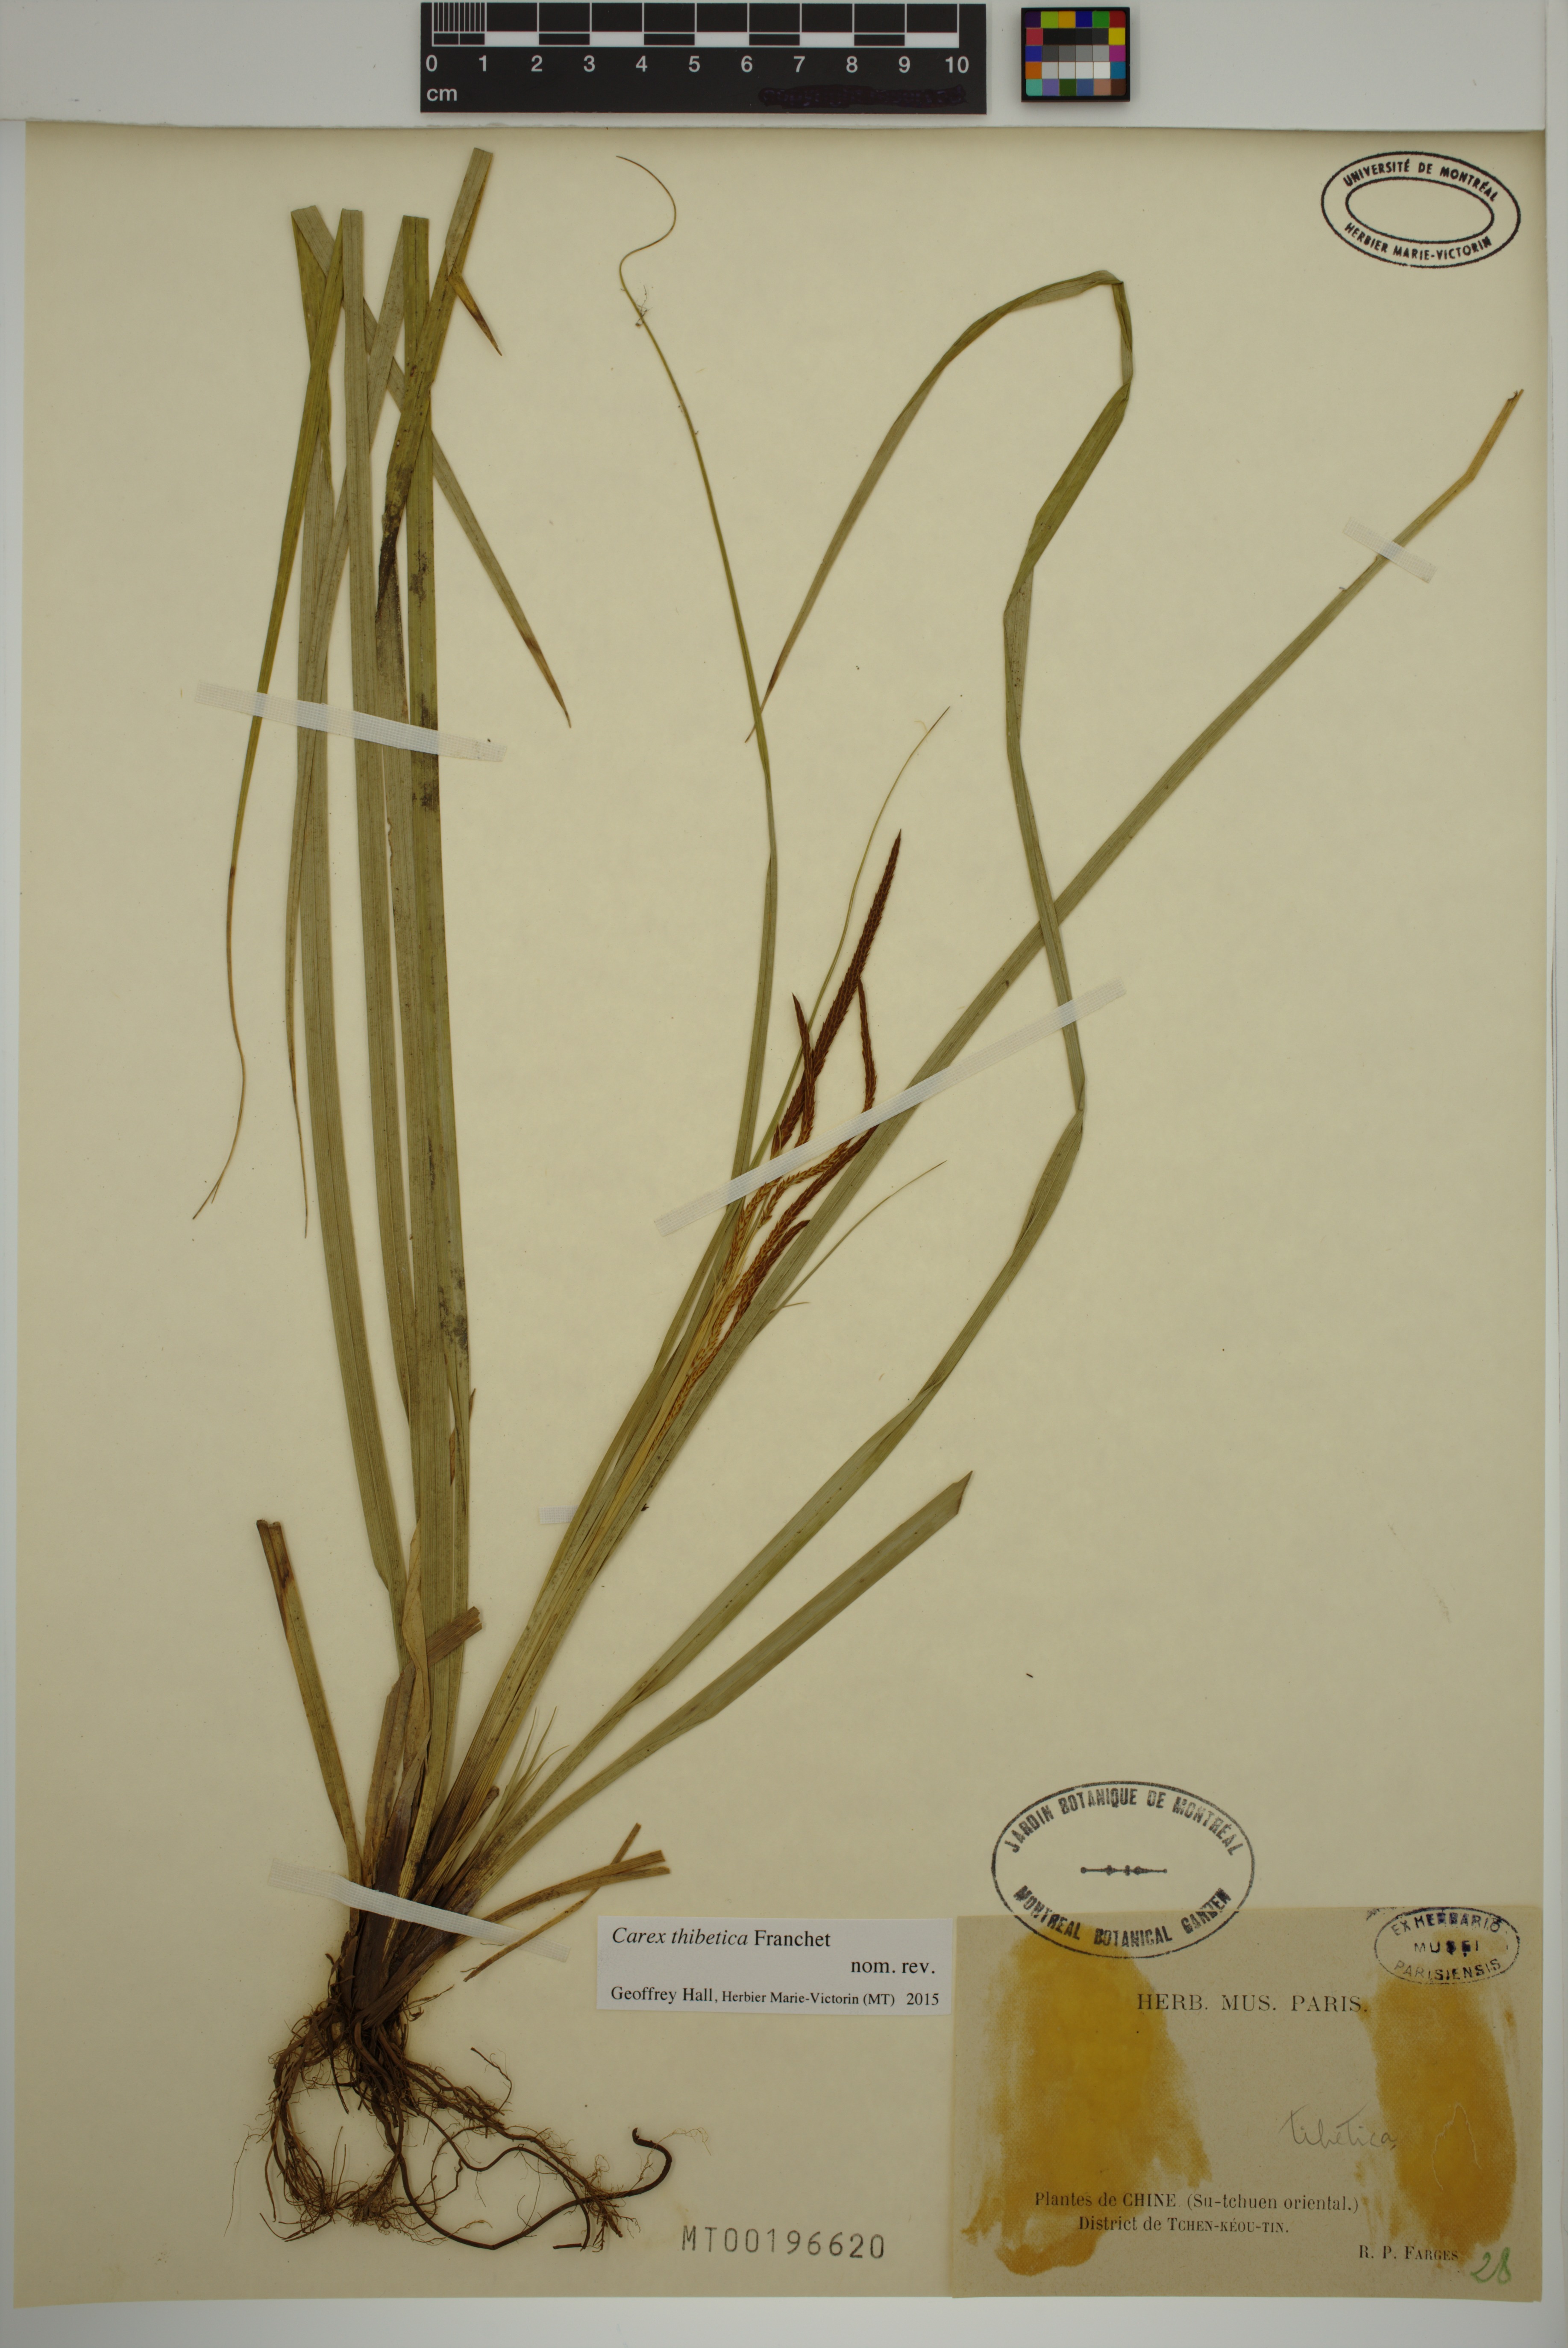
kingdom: Plantae
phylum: Tracheophyta
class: Liliopsida
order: Poales
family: Cyperaceae
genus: Carex
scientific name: Carex thibetica
